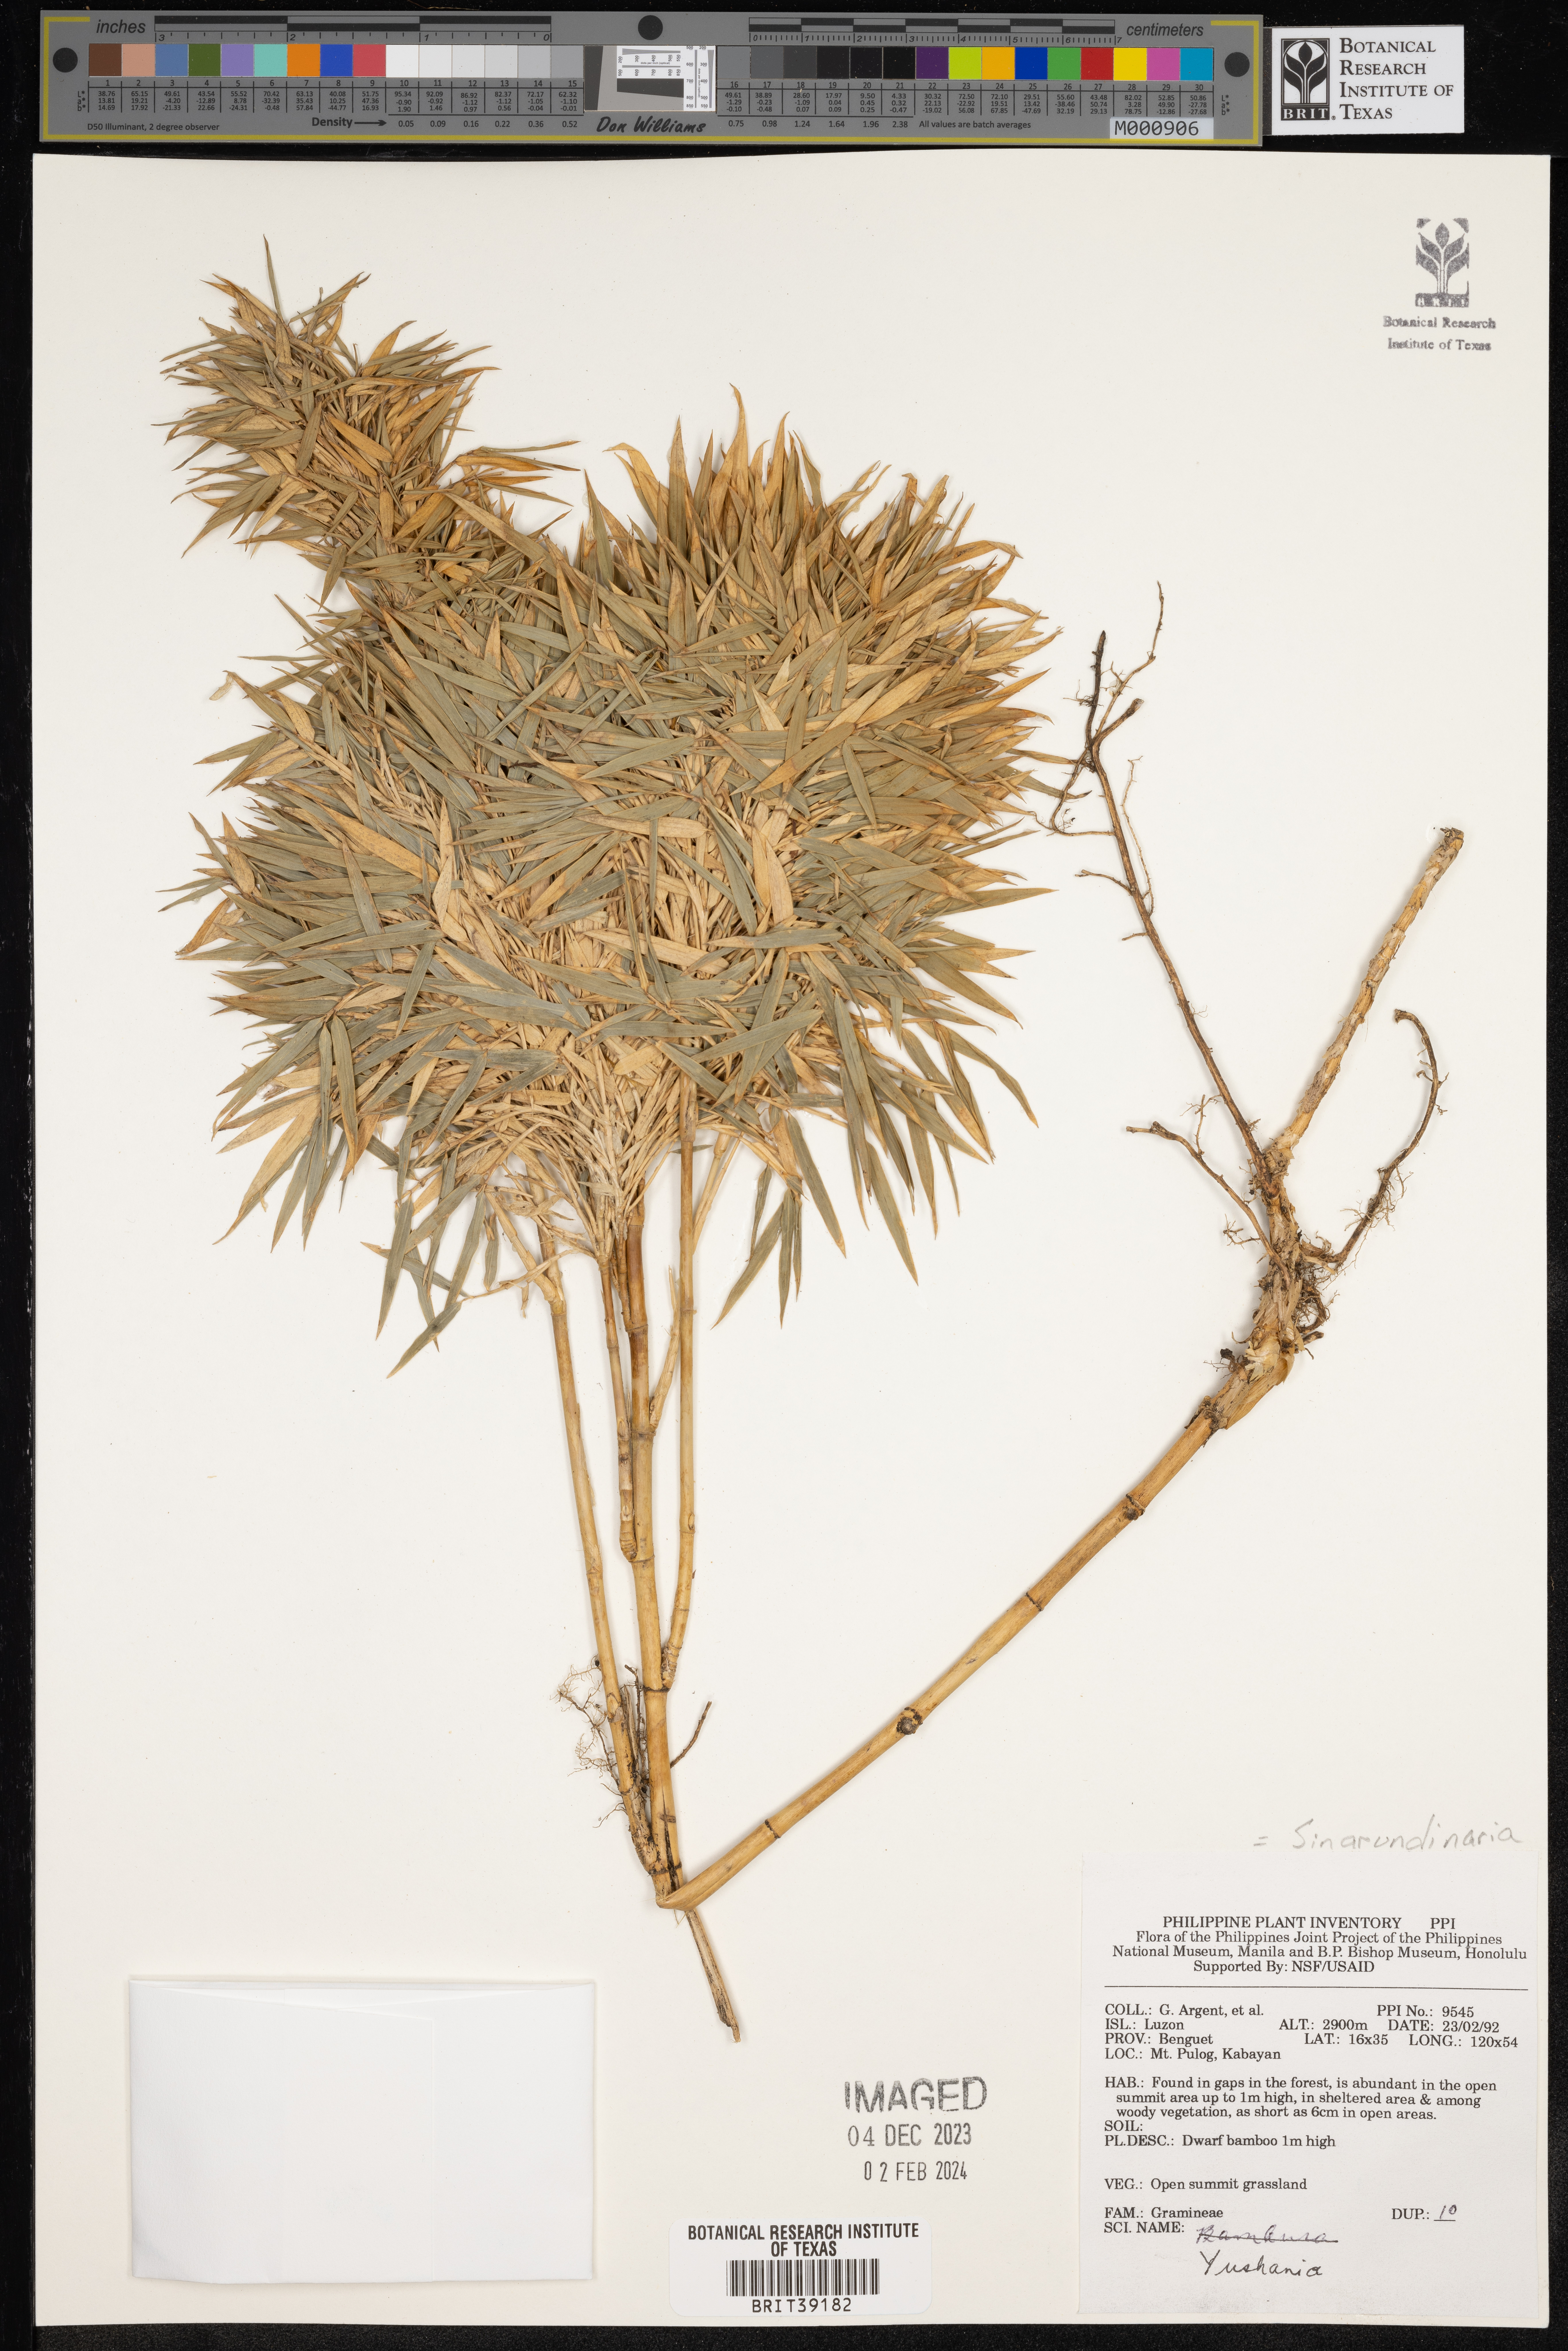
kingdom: Plantae
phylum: Tracheophyta
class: Liliopsida
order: Poales
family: Poaceae
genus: Fargesia
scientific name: Fargesia
